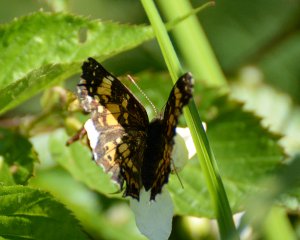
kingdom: Animalia
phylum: Arthropoda
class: Insecta
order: Lepidoptera
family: Nymphalidae
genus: Chlosyne
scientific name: Chlosyne nycteis
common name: Silvery Checkerspot
